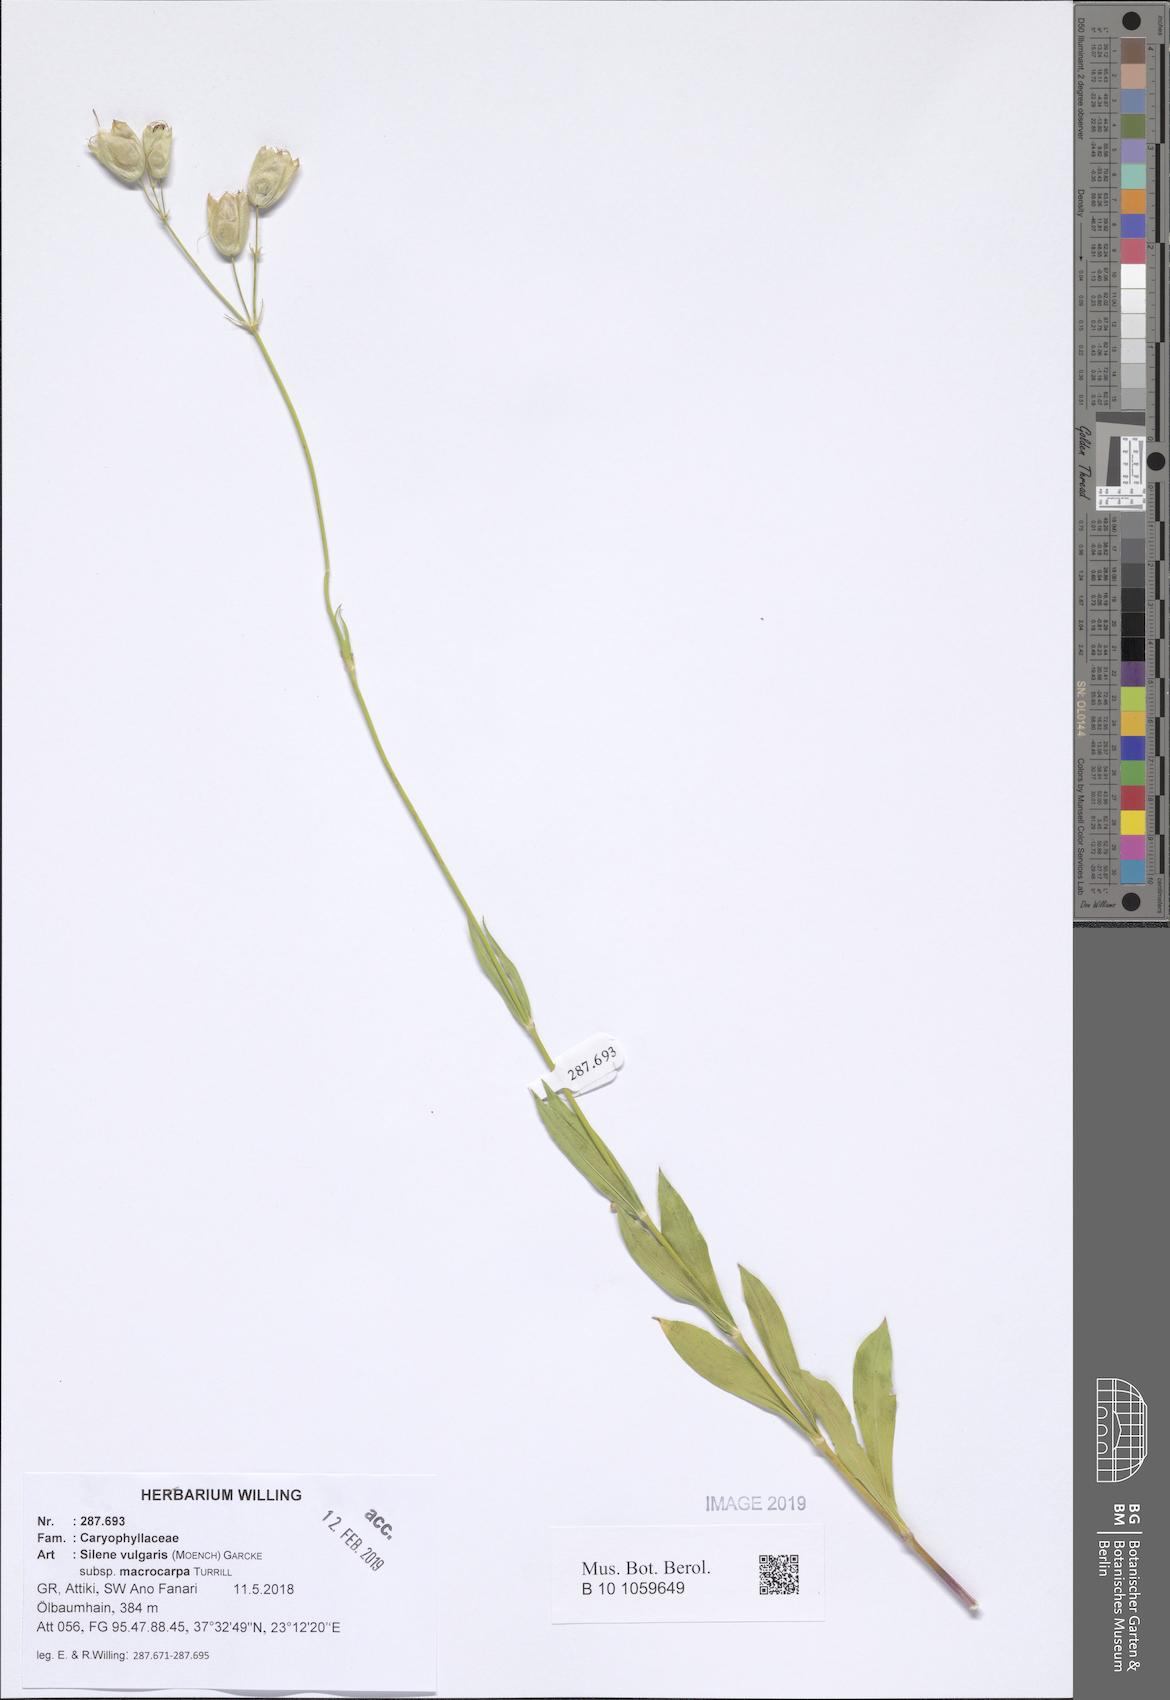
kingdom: Plantae
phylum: Tracheophyta
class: Magnoliopsida
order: Caryophyllales
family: Caryophyllaceae
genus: Silene
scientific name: Silene vulgaris
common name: Bladder campion
